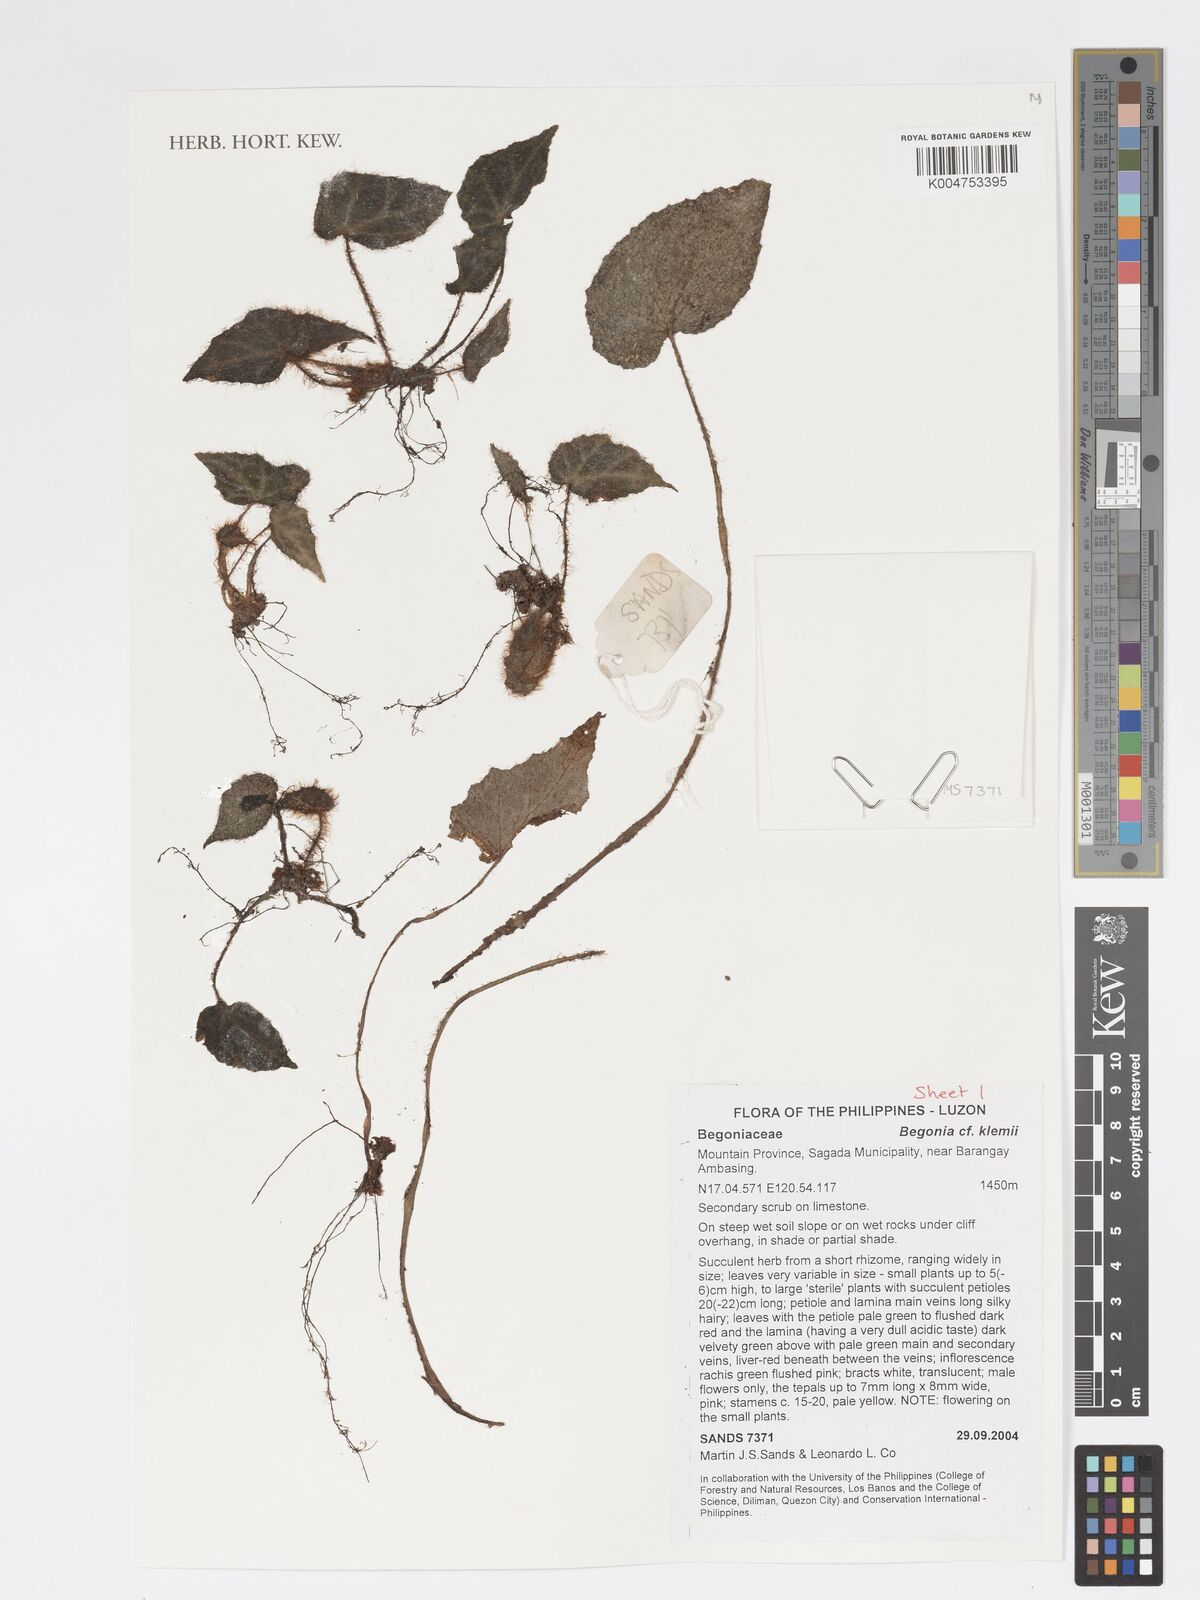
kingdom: Plantae
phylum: Tracheophyta
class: Magnoliopsida
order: Cucurbitales
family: Begoniaceae
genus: Begonia
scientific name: Begonia klemmei
